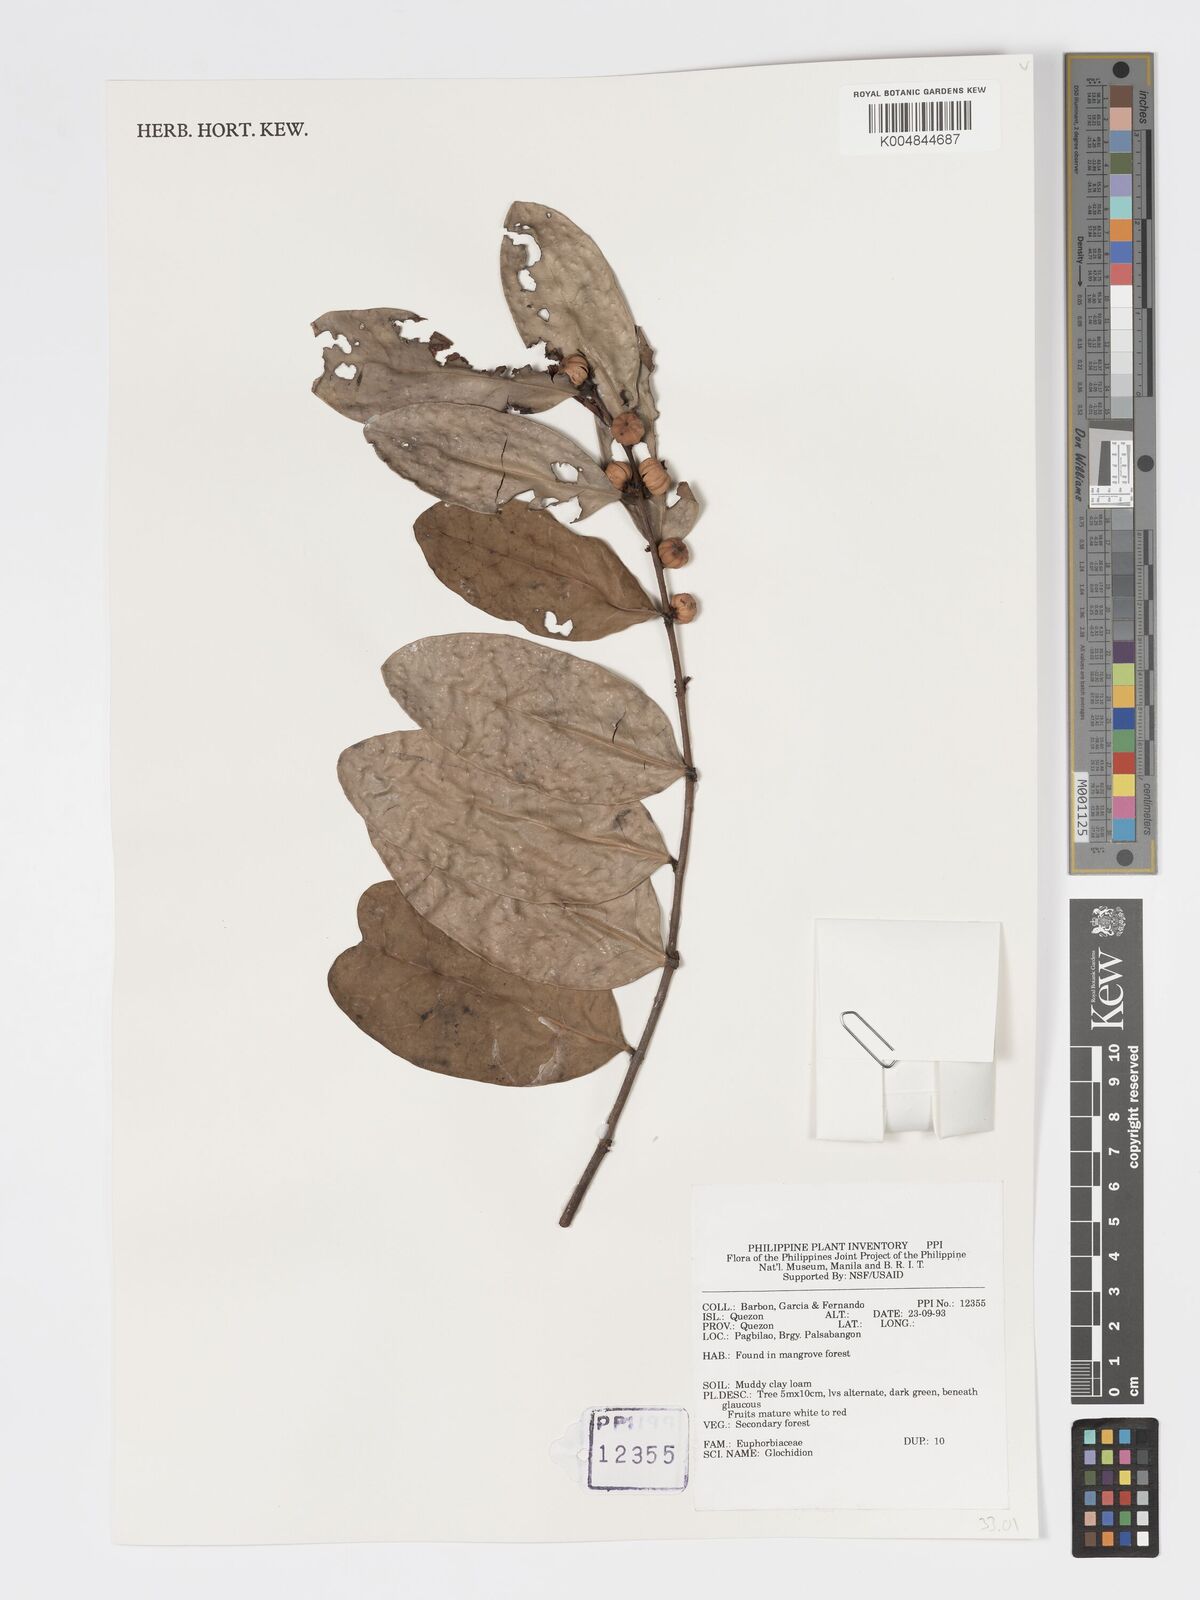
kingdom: Plantae
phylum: Tracheophyta
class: Magnoliopsida
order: Malpighiales
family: Phyllanthaceae
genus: Glochidion
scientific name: Glochidion
